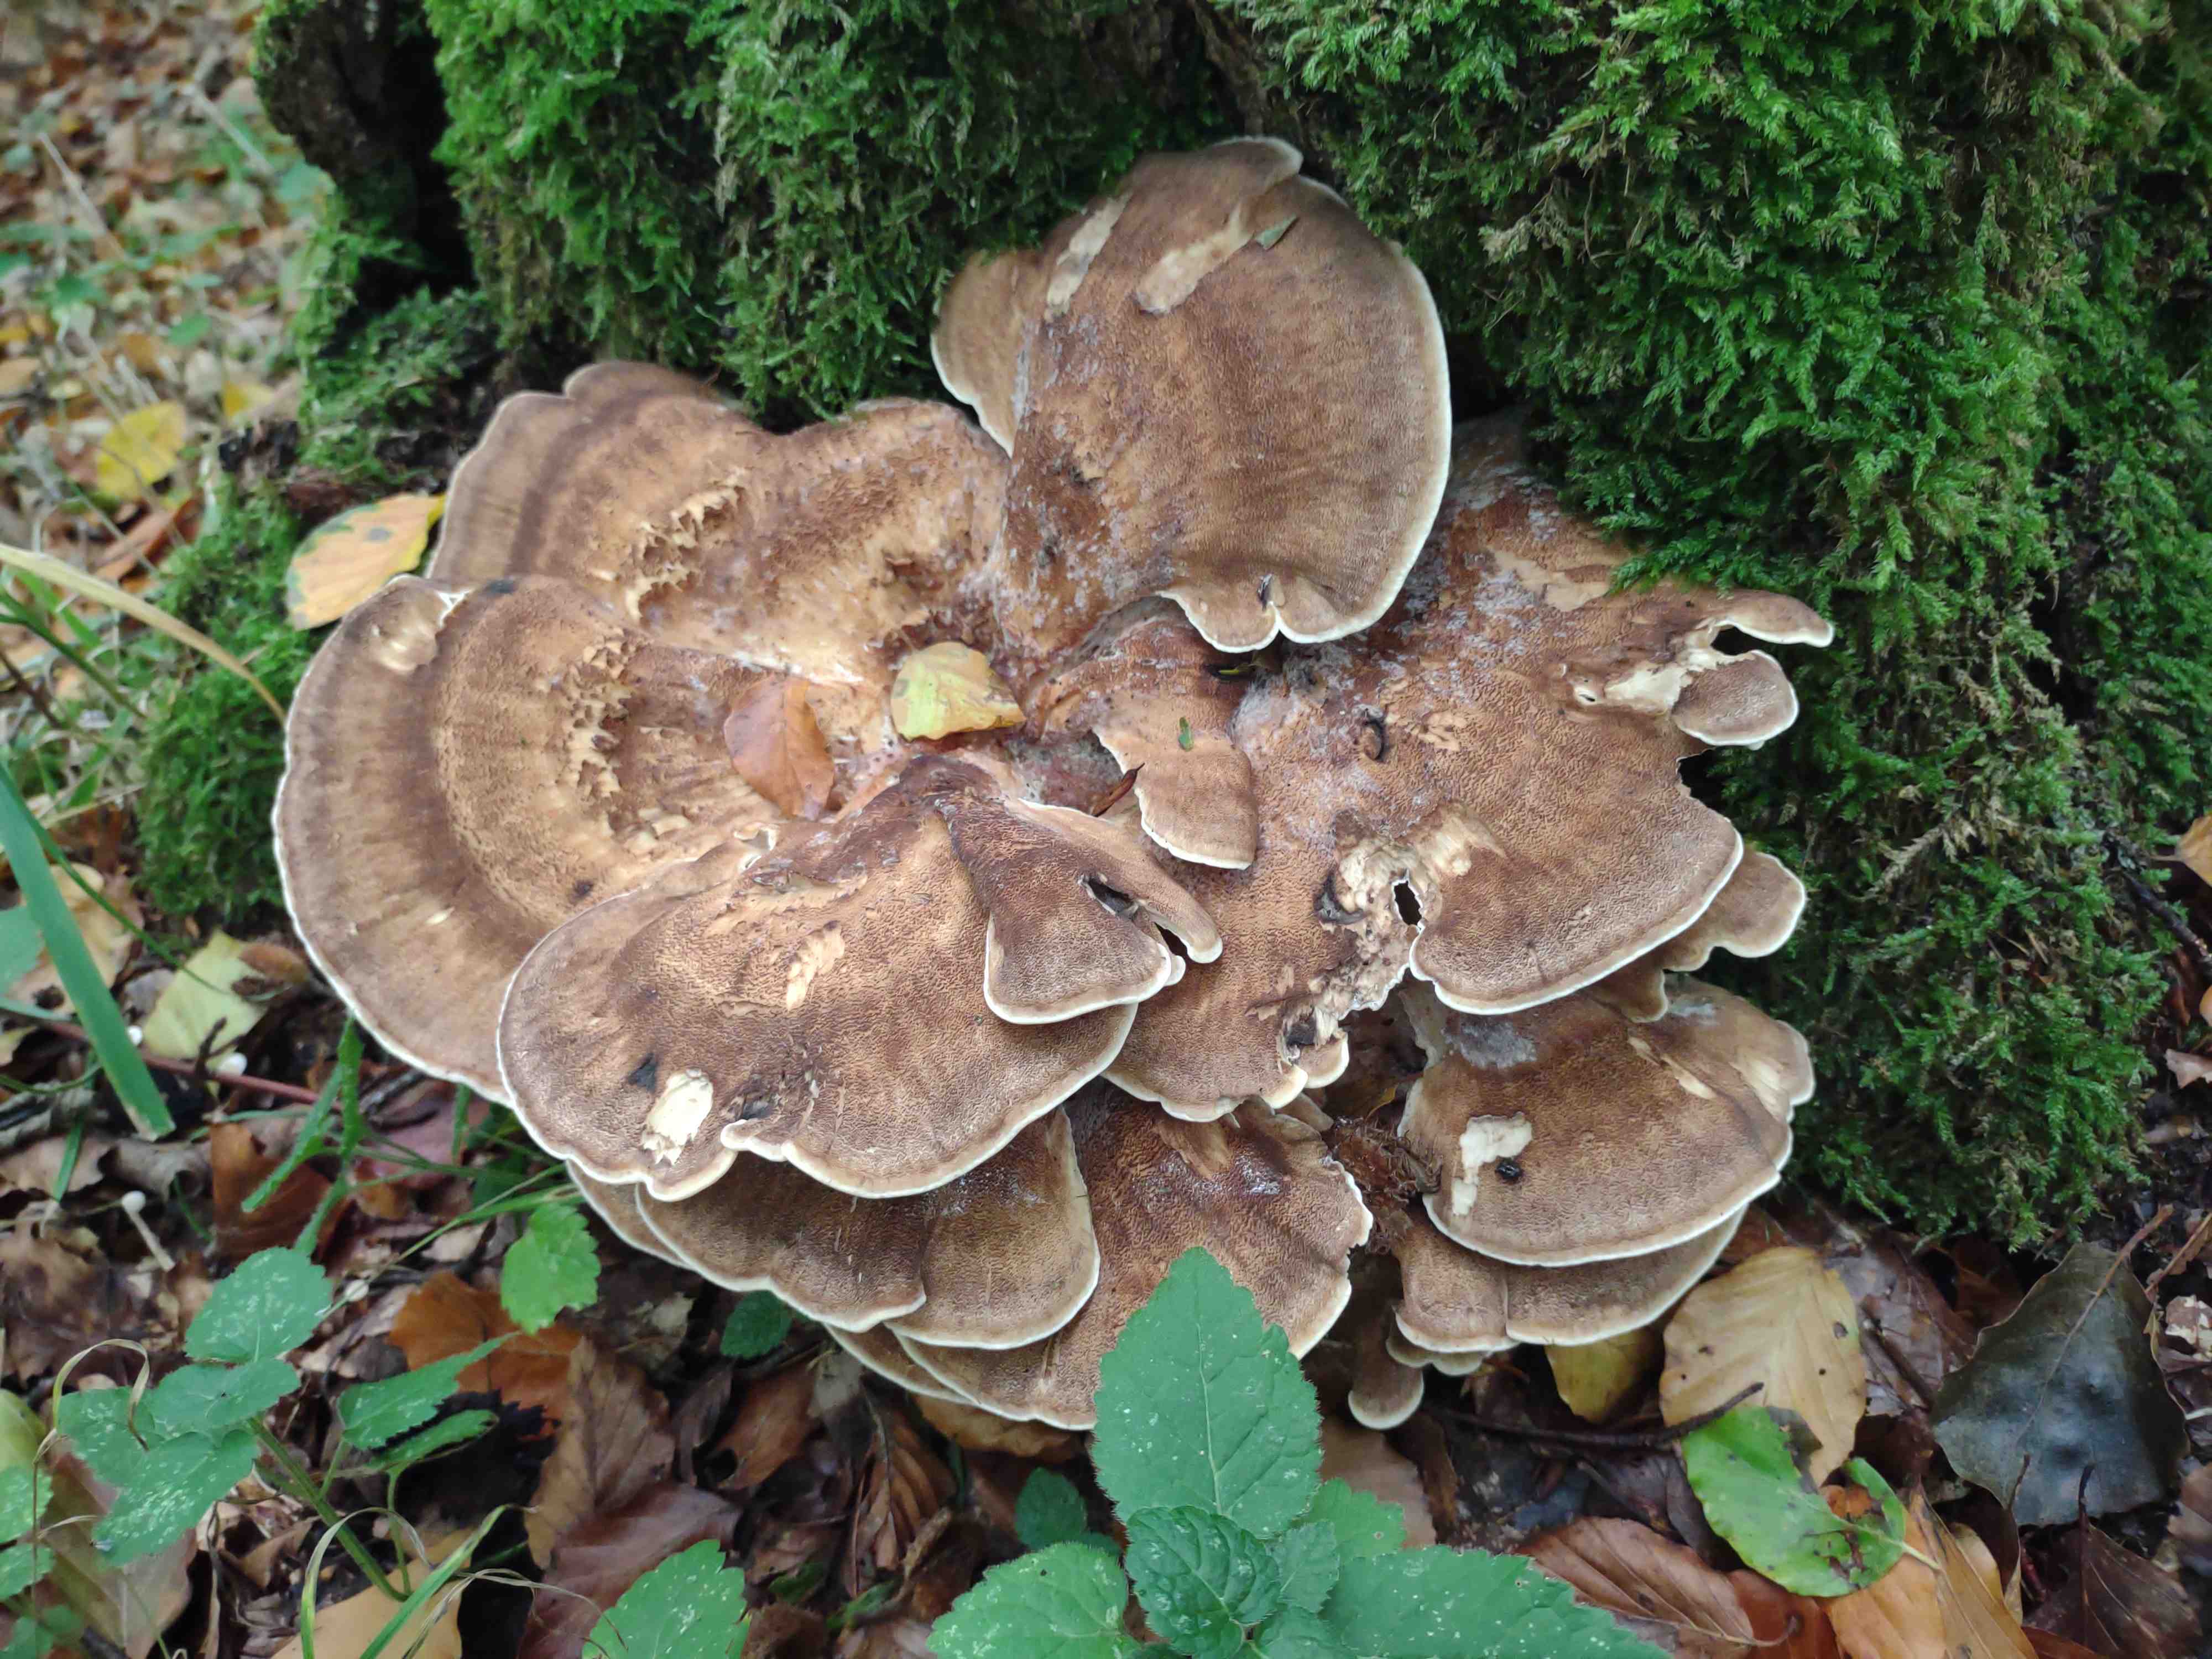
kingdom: Fungi
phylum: Basidiomycota
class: Agaricomycetes
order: Polyporales
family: Meripilaceae
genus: Meripilus
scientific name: Meripilus giganteus
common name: kæmpeporesvamp
